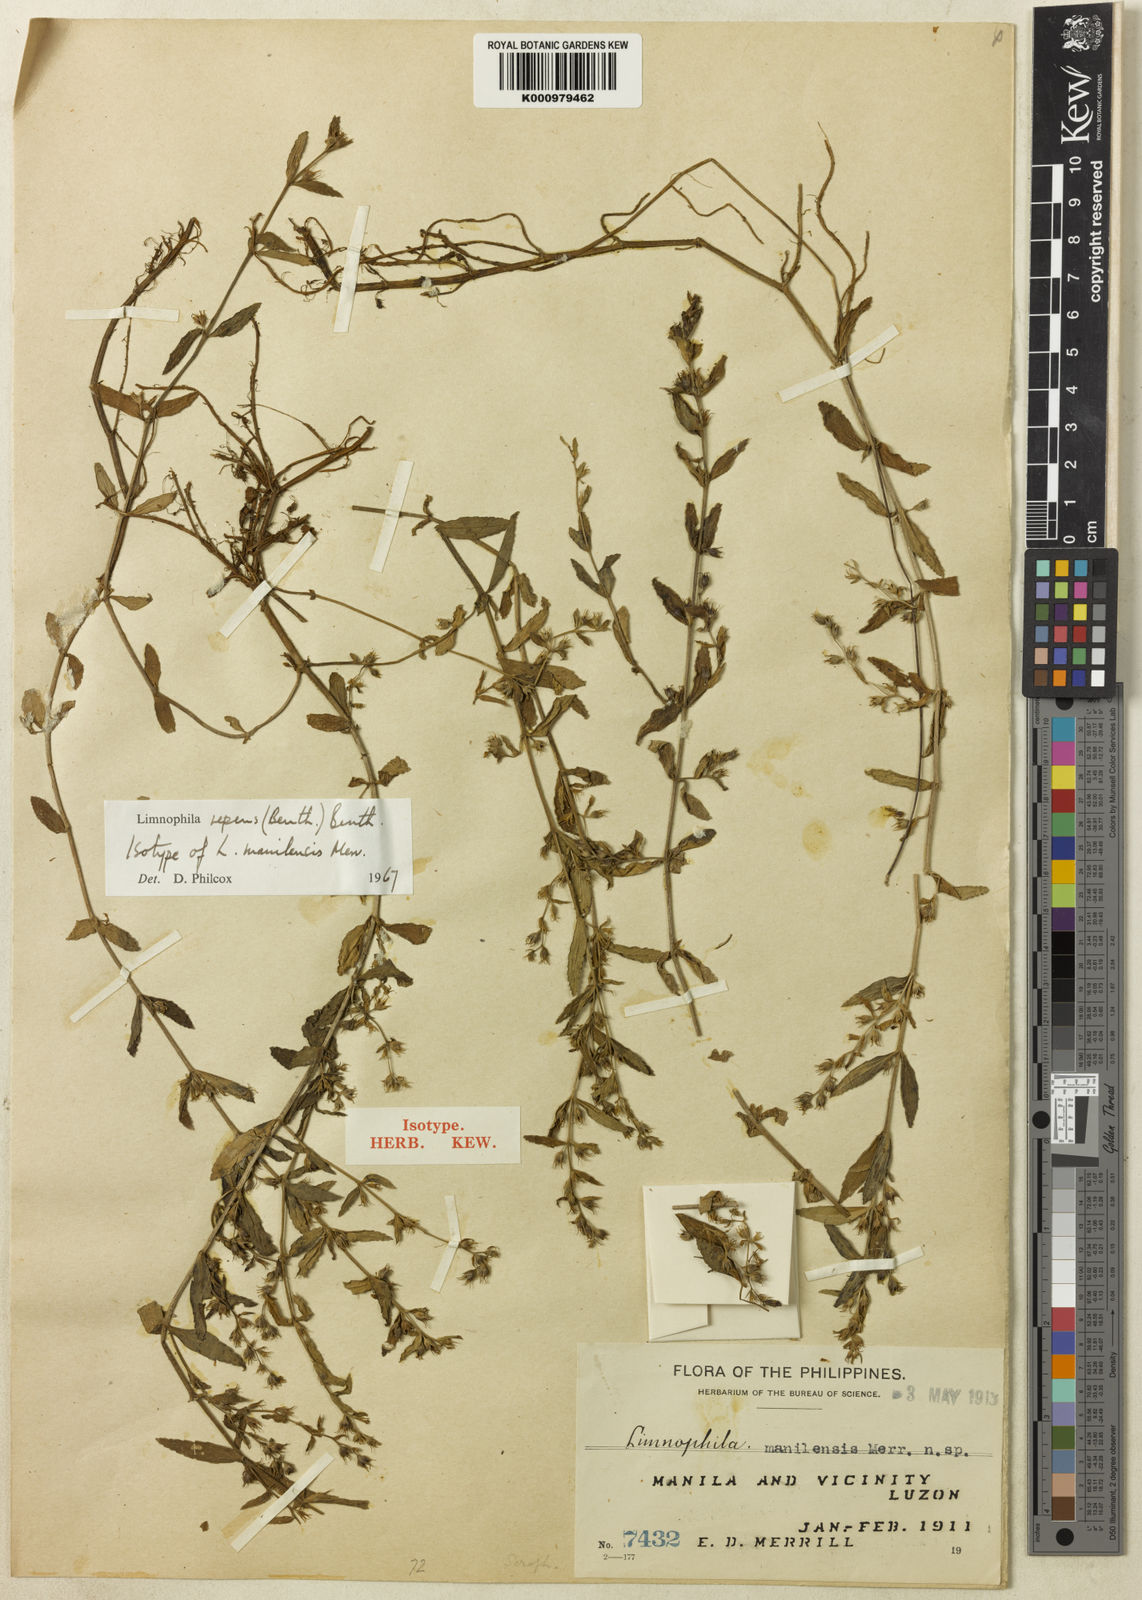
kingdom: Plantae
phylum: Tracheophyta
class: Magnoliopsida
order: Lamiales
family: Plantaginaceae
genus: Limnophila
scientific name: Limnophila repens
